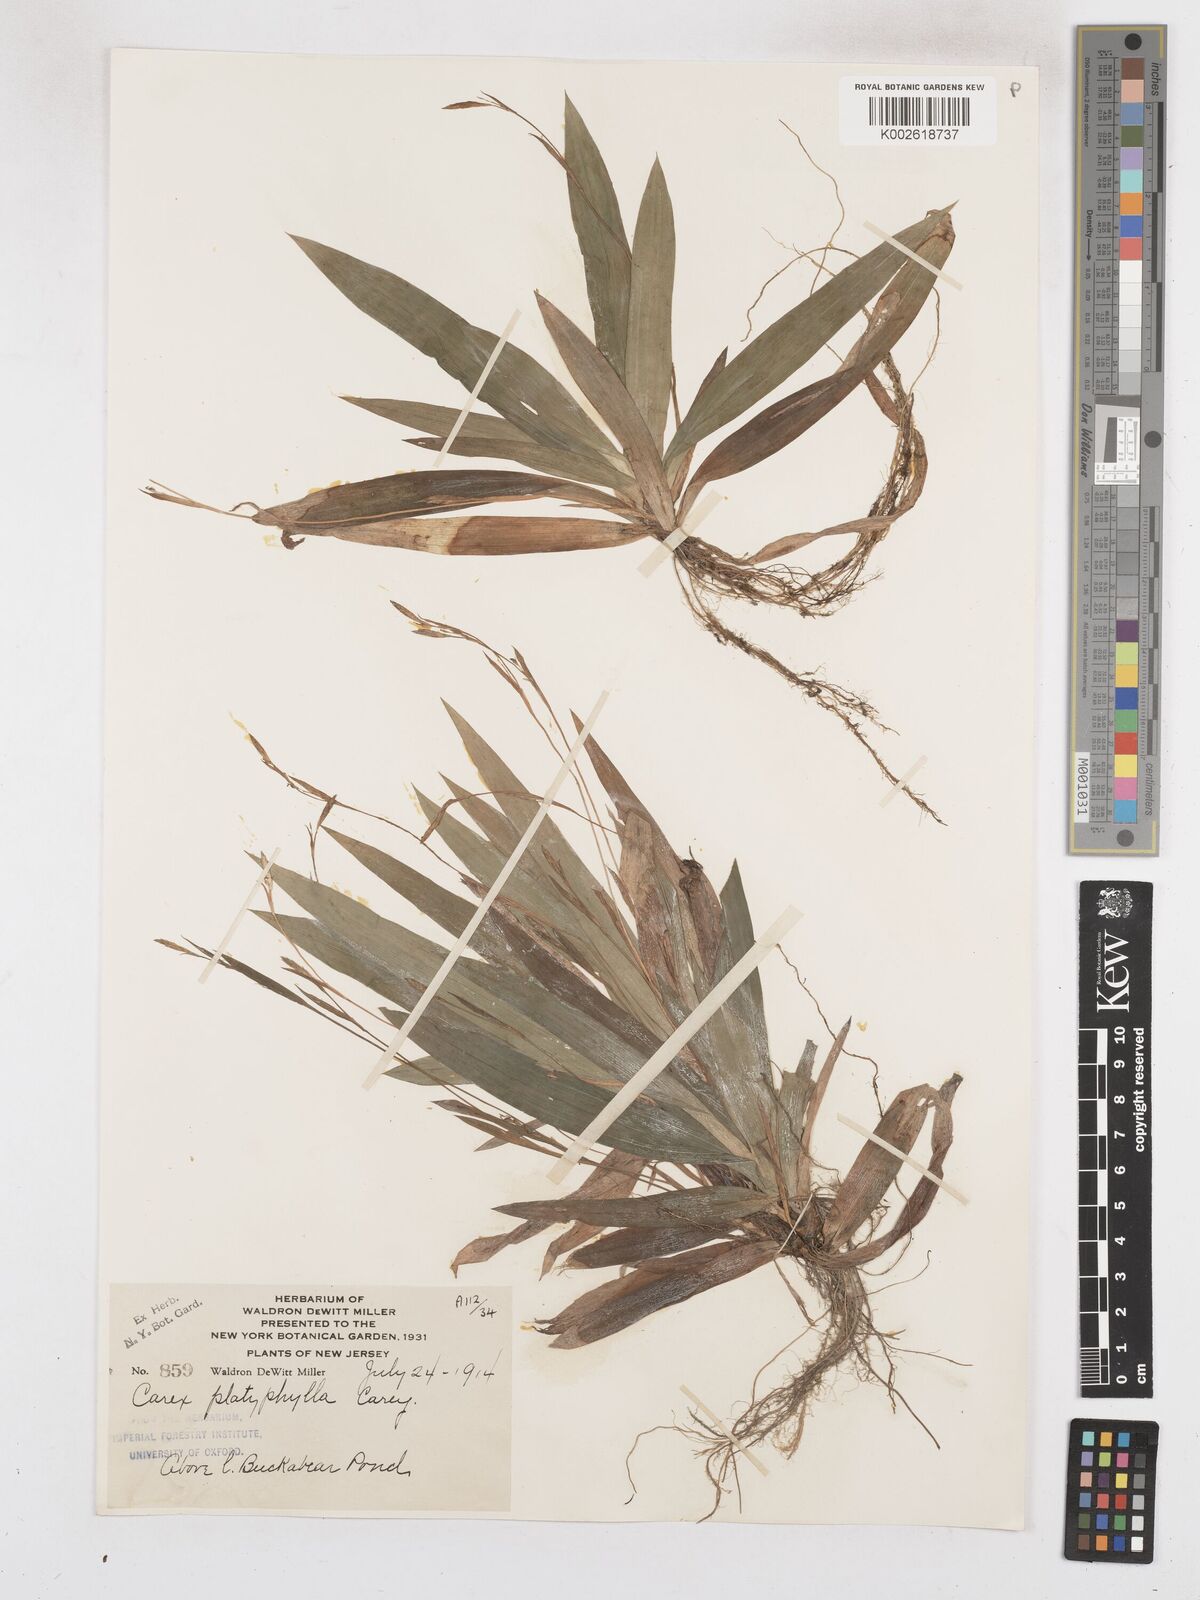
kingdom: Plantae
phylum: Tracheophyta
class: Liliopsida
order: Poales
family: Cyperaceae
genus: Carex
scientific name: Carex platyphylla
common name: Broad-leaved sedge
